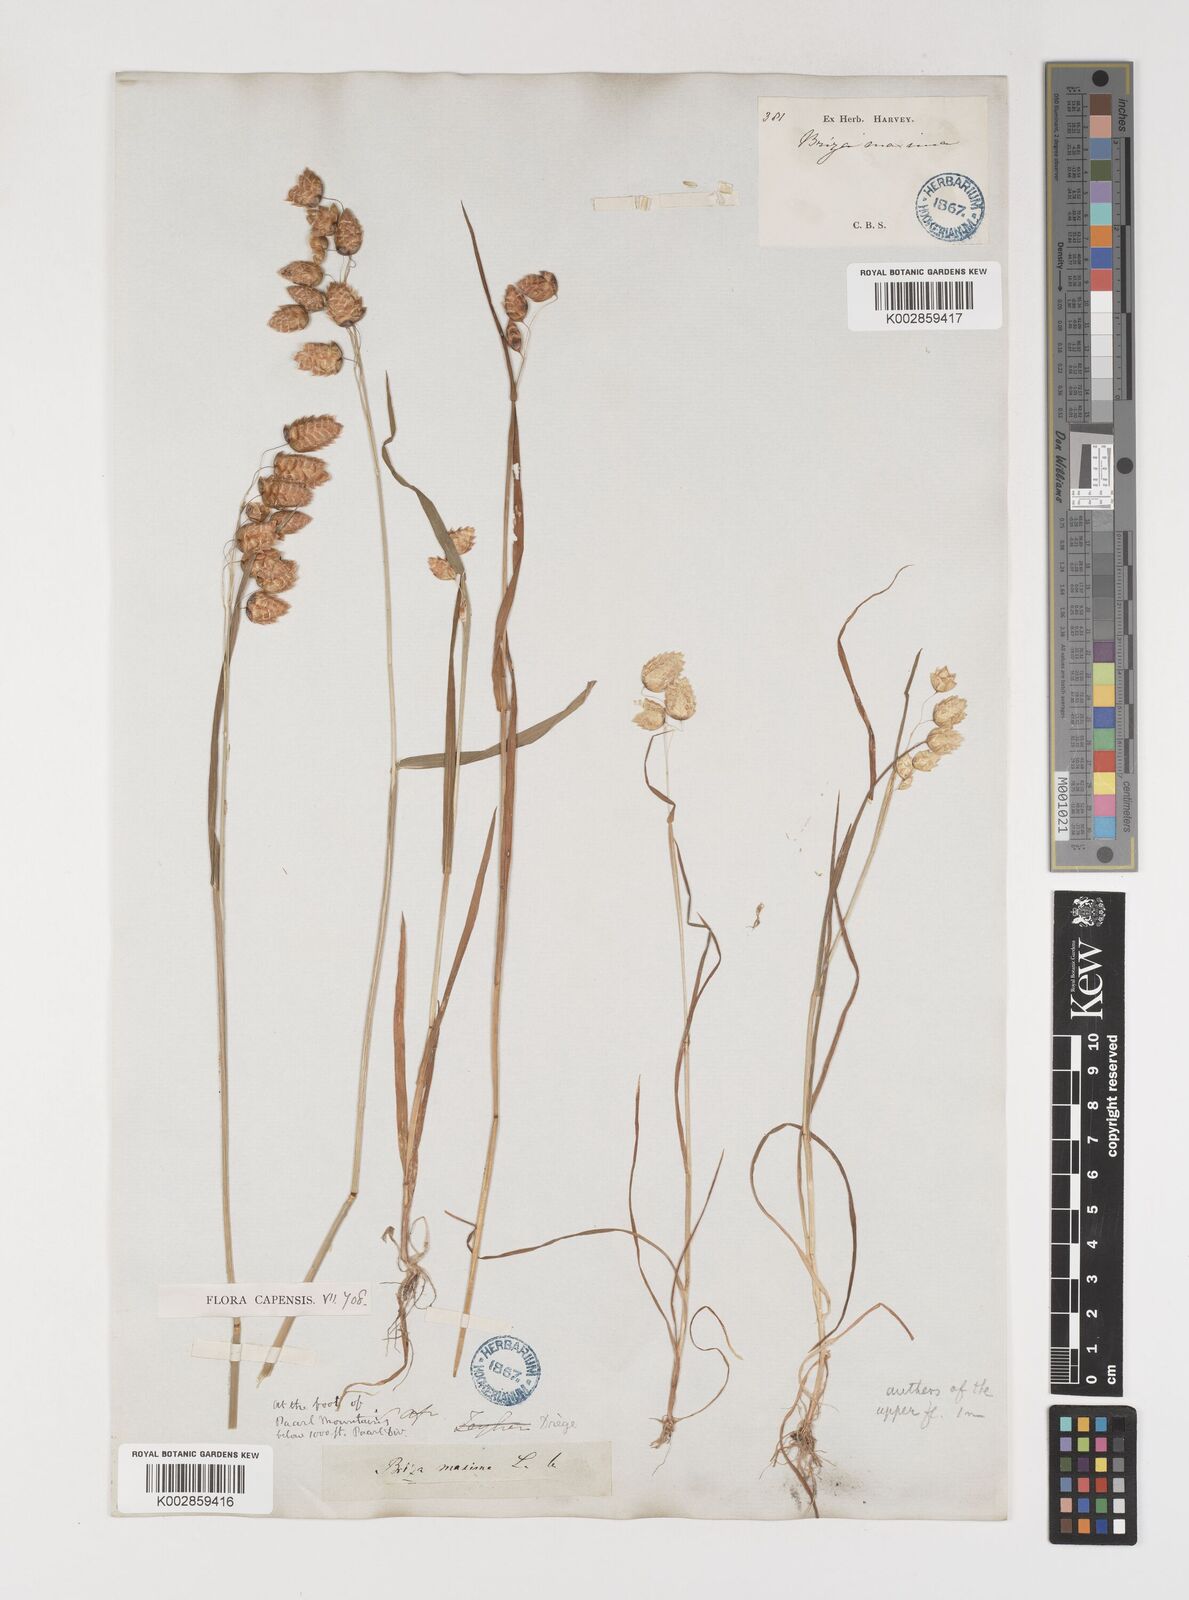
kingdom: Plantae
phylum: Tracheophyta
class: Liliopsida
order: Poales
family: Poaceae
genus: Briza
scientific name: Briza maxima
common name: Big quakinggrass
